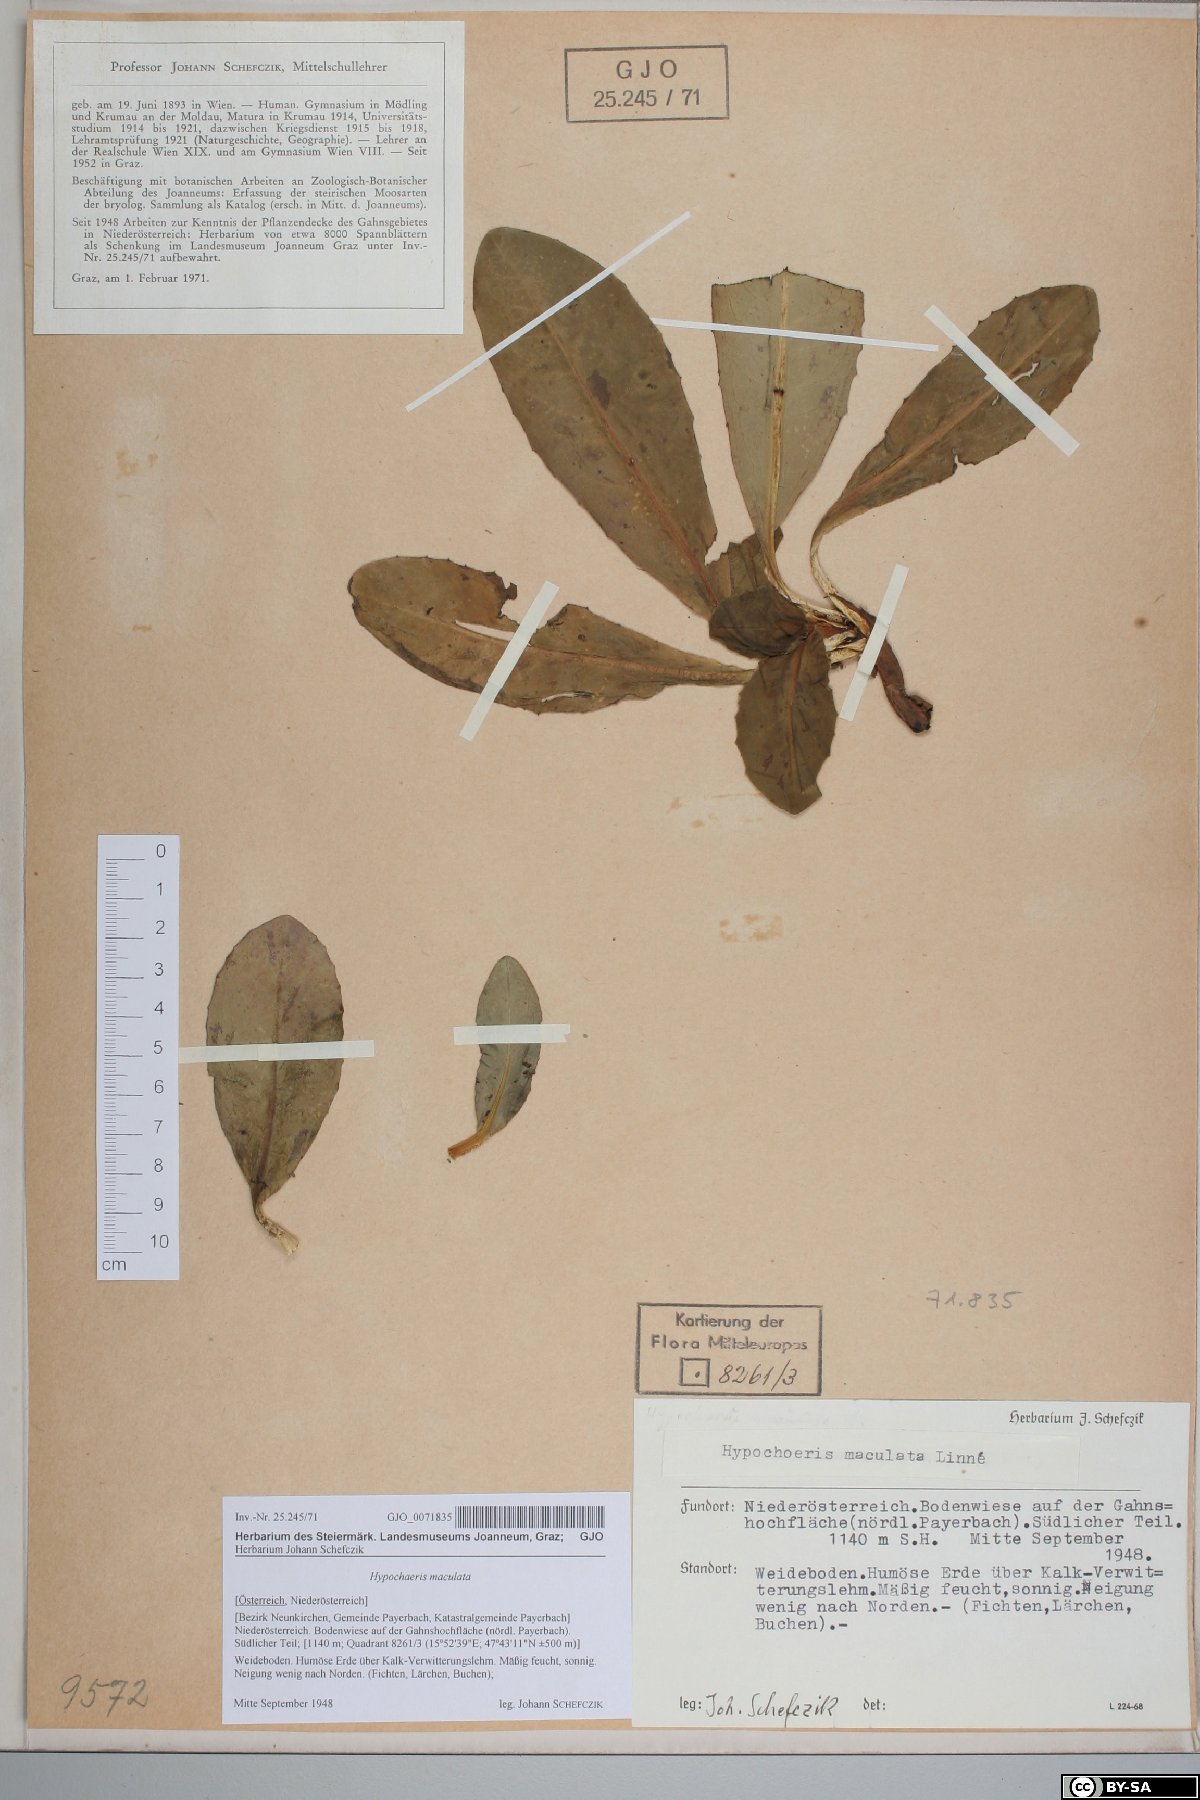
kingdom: Plantae
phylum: Tracheophyta
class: Magnoliopsida
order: Asterales
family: Asteraceae
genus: Trommsdorffia
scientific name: Trommsdorffia maculata
